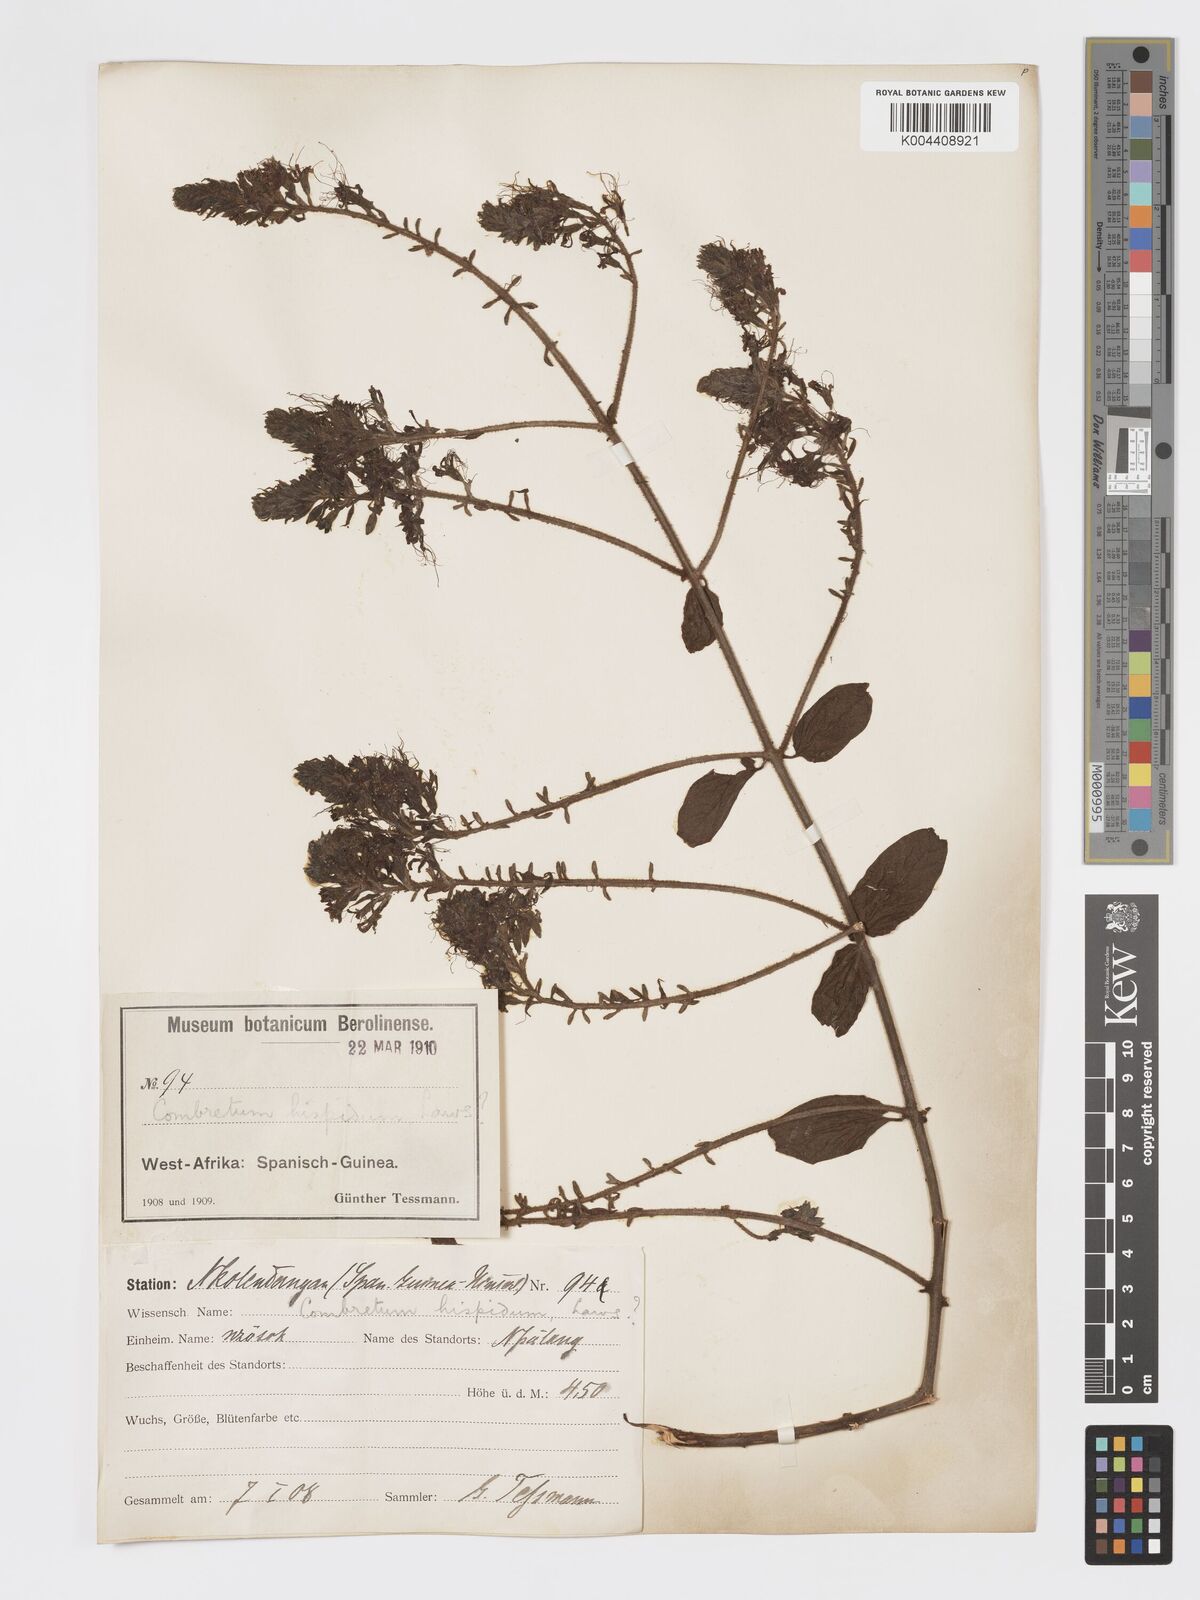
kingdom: Plantae
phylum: Tracheophyta
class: Magnoliopsida
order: Myrtales
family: Combretaceae
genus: Combretum
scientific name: Combretum comosum
